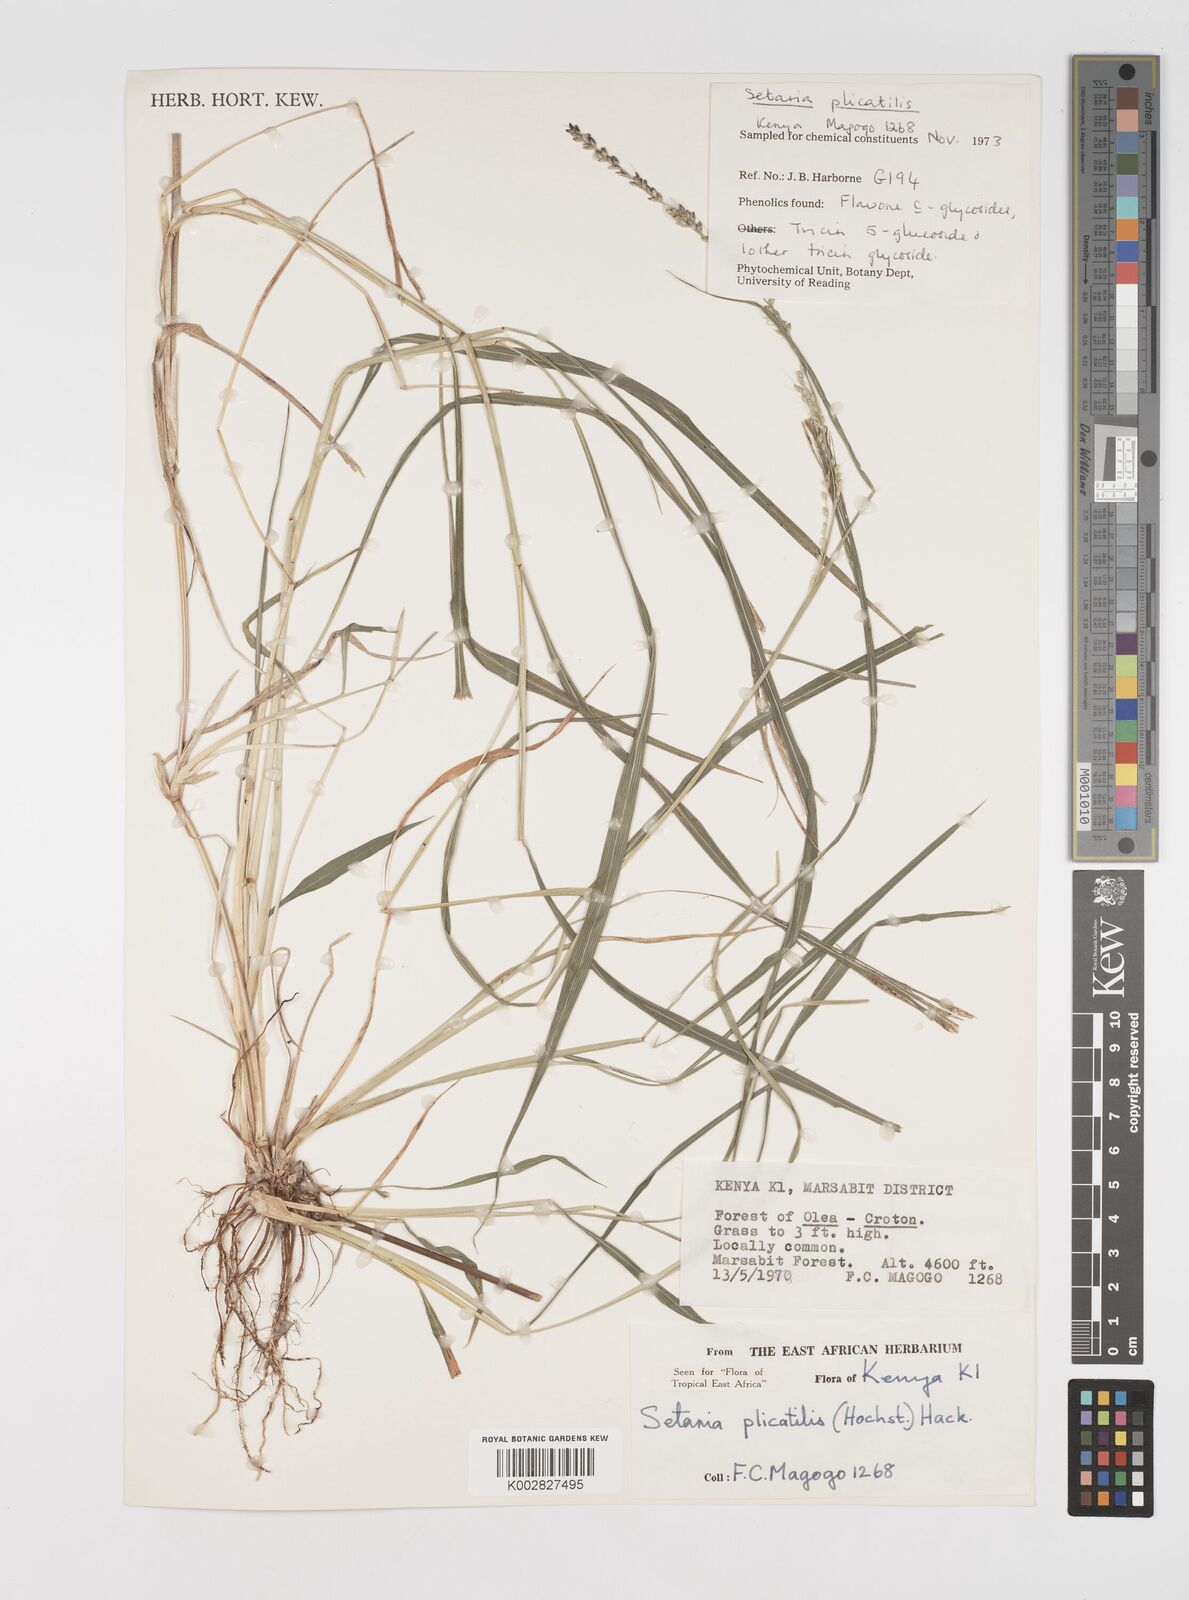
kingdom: Plantae
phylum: Tracheophyta
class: Liliopsida
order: Poales
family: Poaceae
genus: Setaria
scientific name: Setaria megaphylla
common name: Bigleaf bristlegrass
